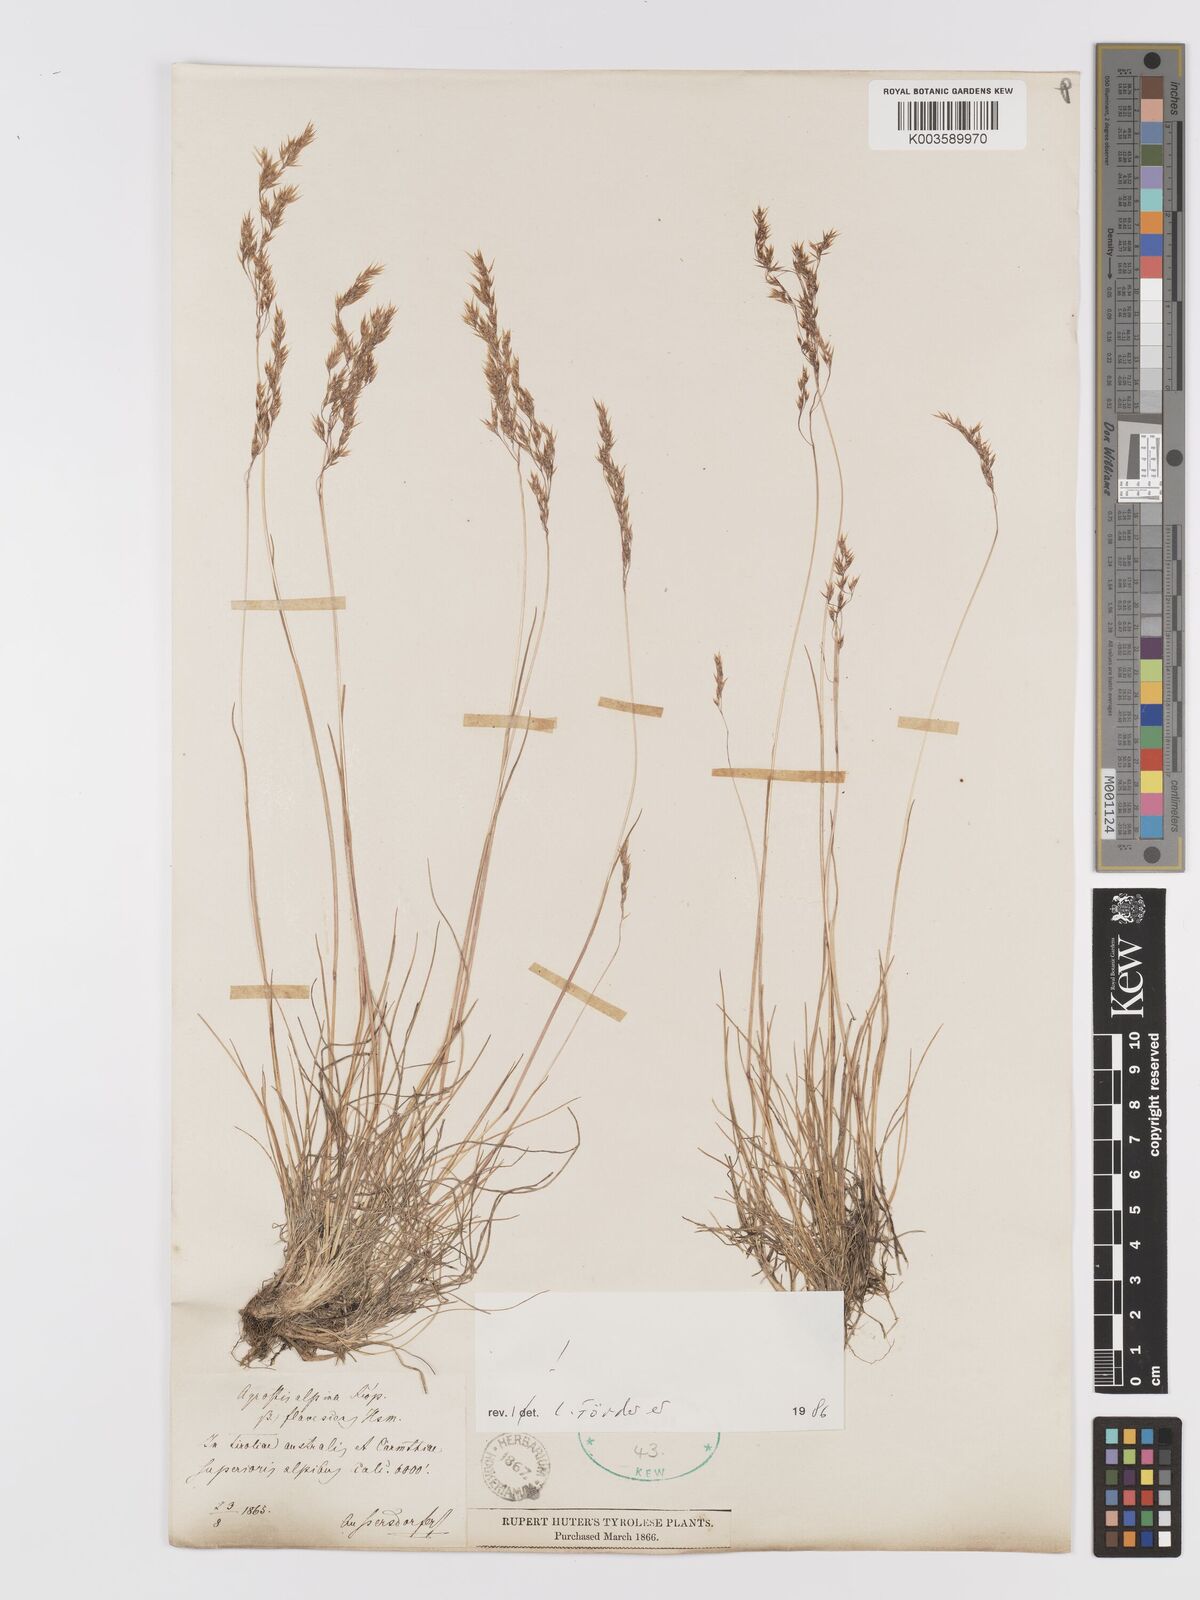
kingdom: Plantae
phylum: Tracheophyta
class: Liliopsida
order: Poales
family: Poaceae
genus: Alpagrostis
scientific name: Alpagrostis alpina
